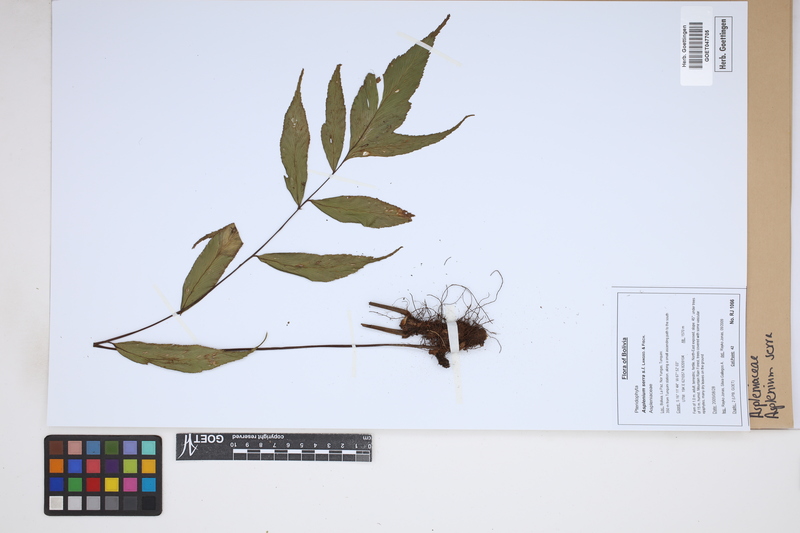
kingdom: Plantae
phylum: Tracheophyta
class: Polypodiopsida
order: Polypodiales
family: Aspleniaceae
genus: Asplenium
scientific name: Asplenium serra
